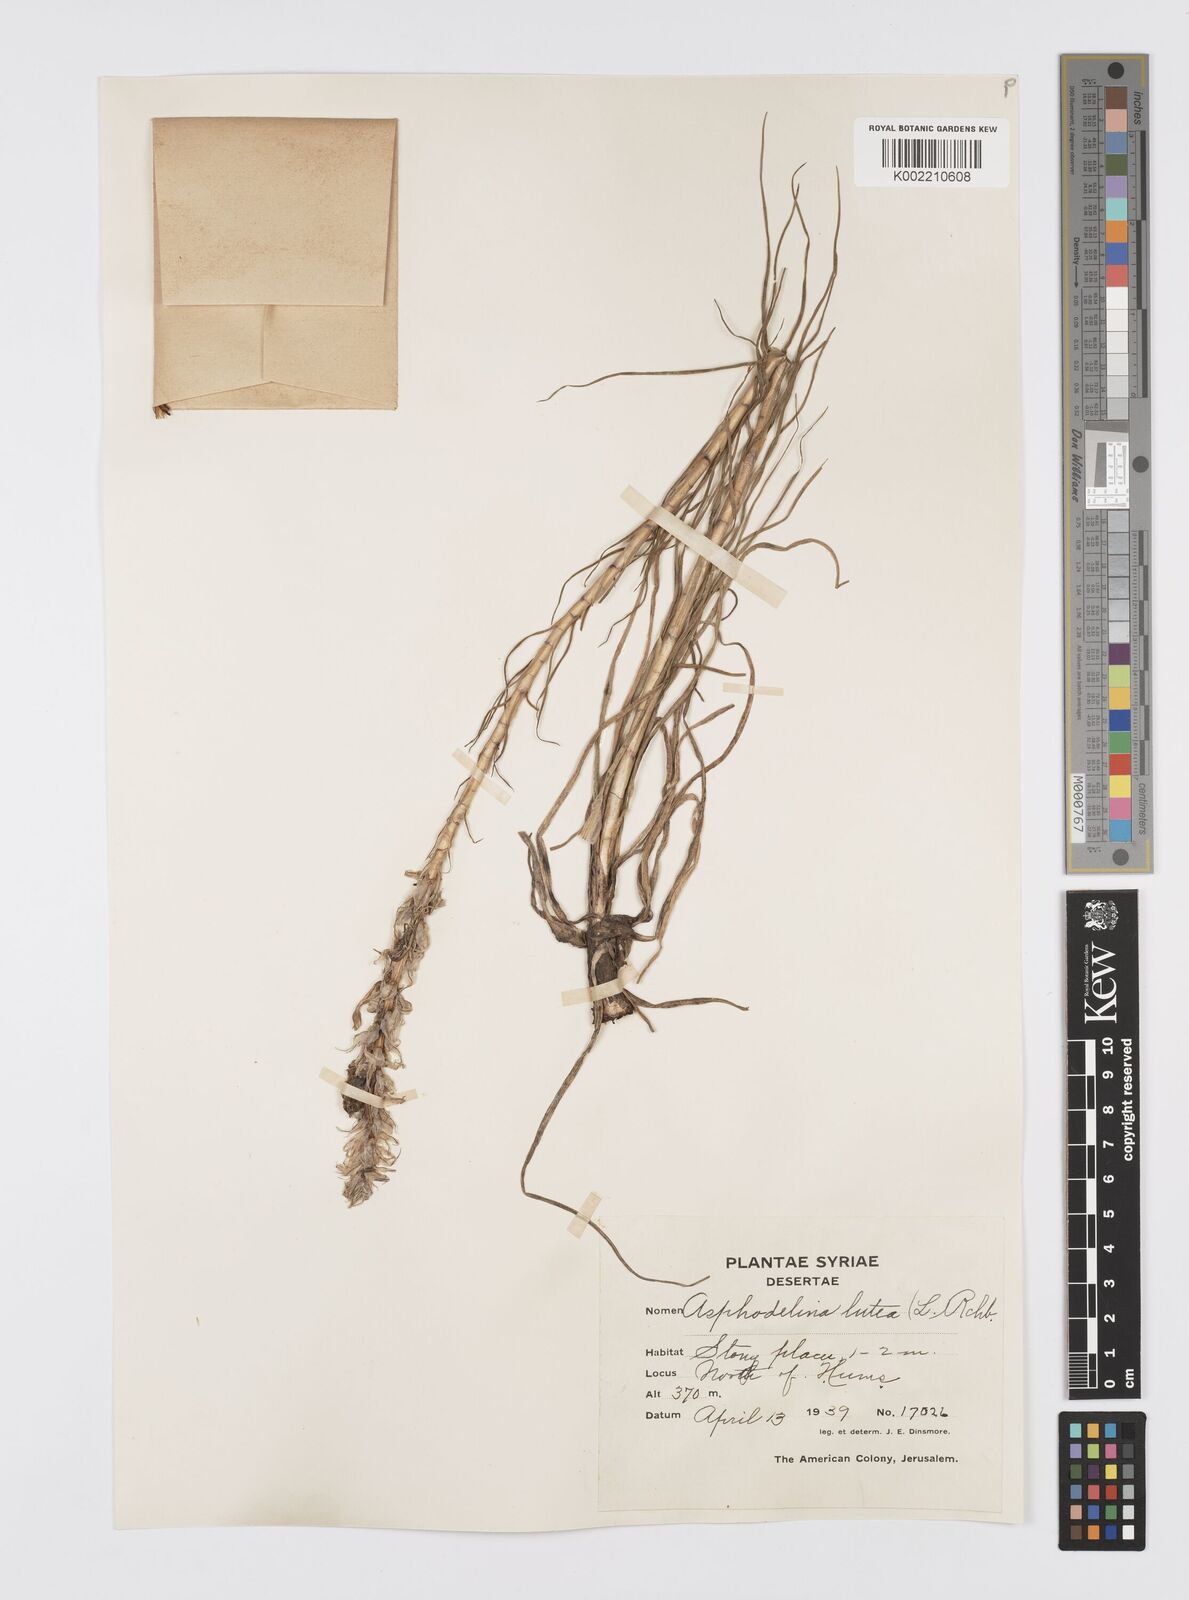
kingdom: Plantae
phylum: Tracheophyta
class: Liliopsida
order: Asparagales
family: Asphodelaceae
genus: Asphodeline
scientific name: Asphodeline lutea
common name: Yellow asphodel
